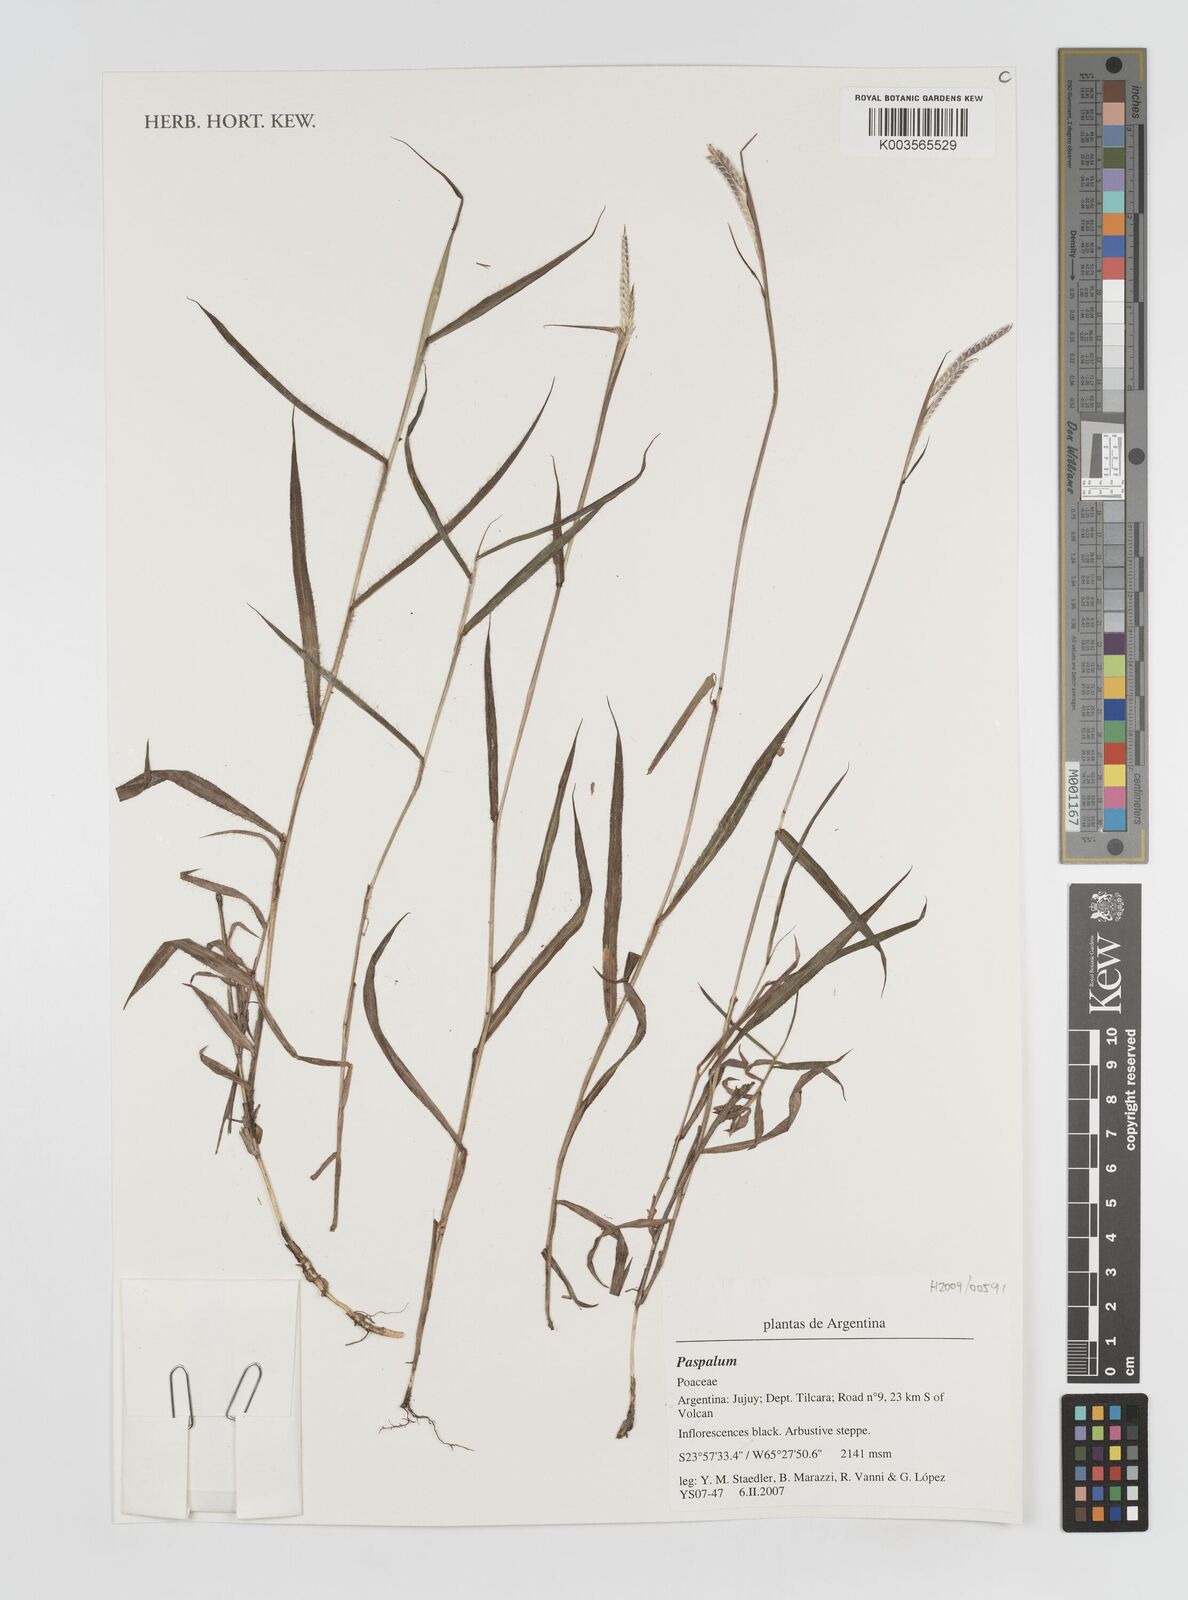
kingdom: Plantae
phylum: Tracheophyta
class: Liliopsida
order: Poales
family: Poaceae
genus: Paspalum
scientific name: Paspalum
